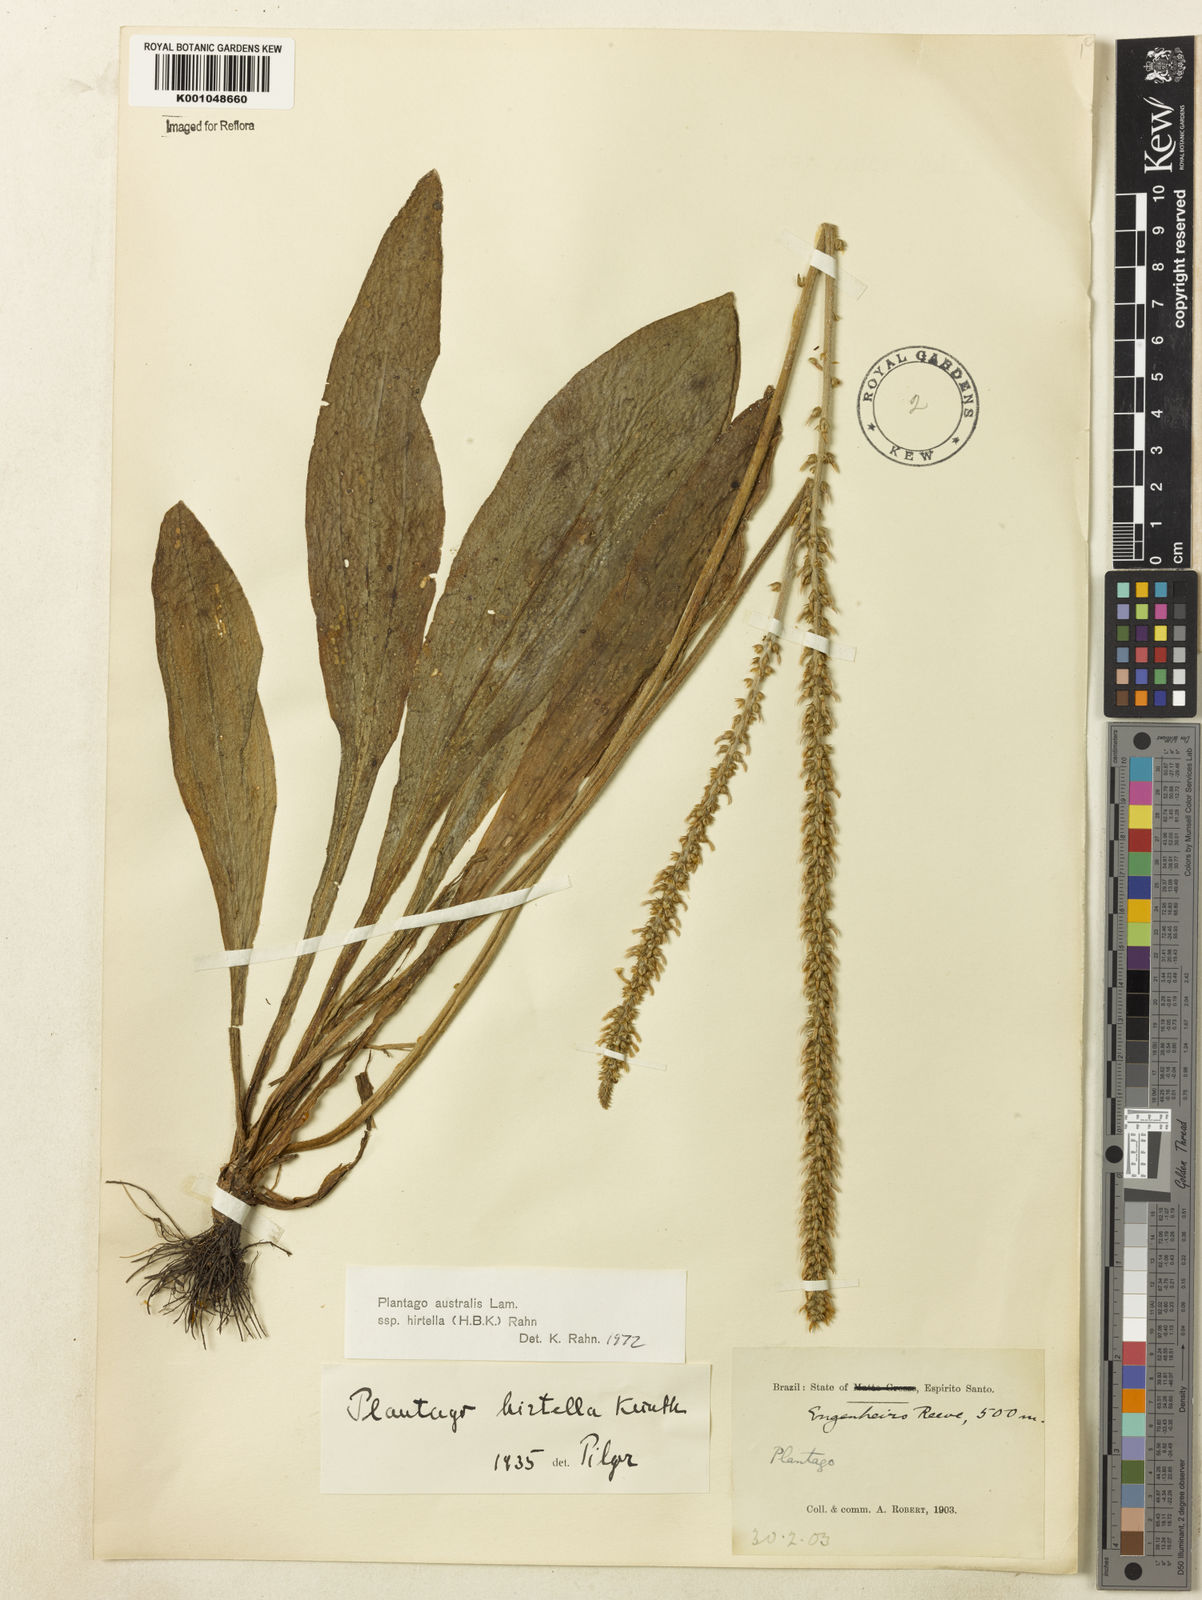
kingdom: Plantae
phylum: Tracheophyta
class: Magnoliopsida
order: Lamiales
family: Plantaginaceae
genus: Plantago
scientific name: Plantago australis
